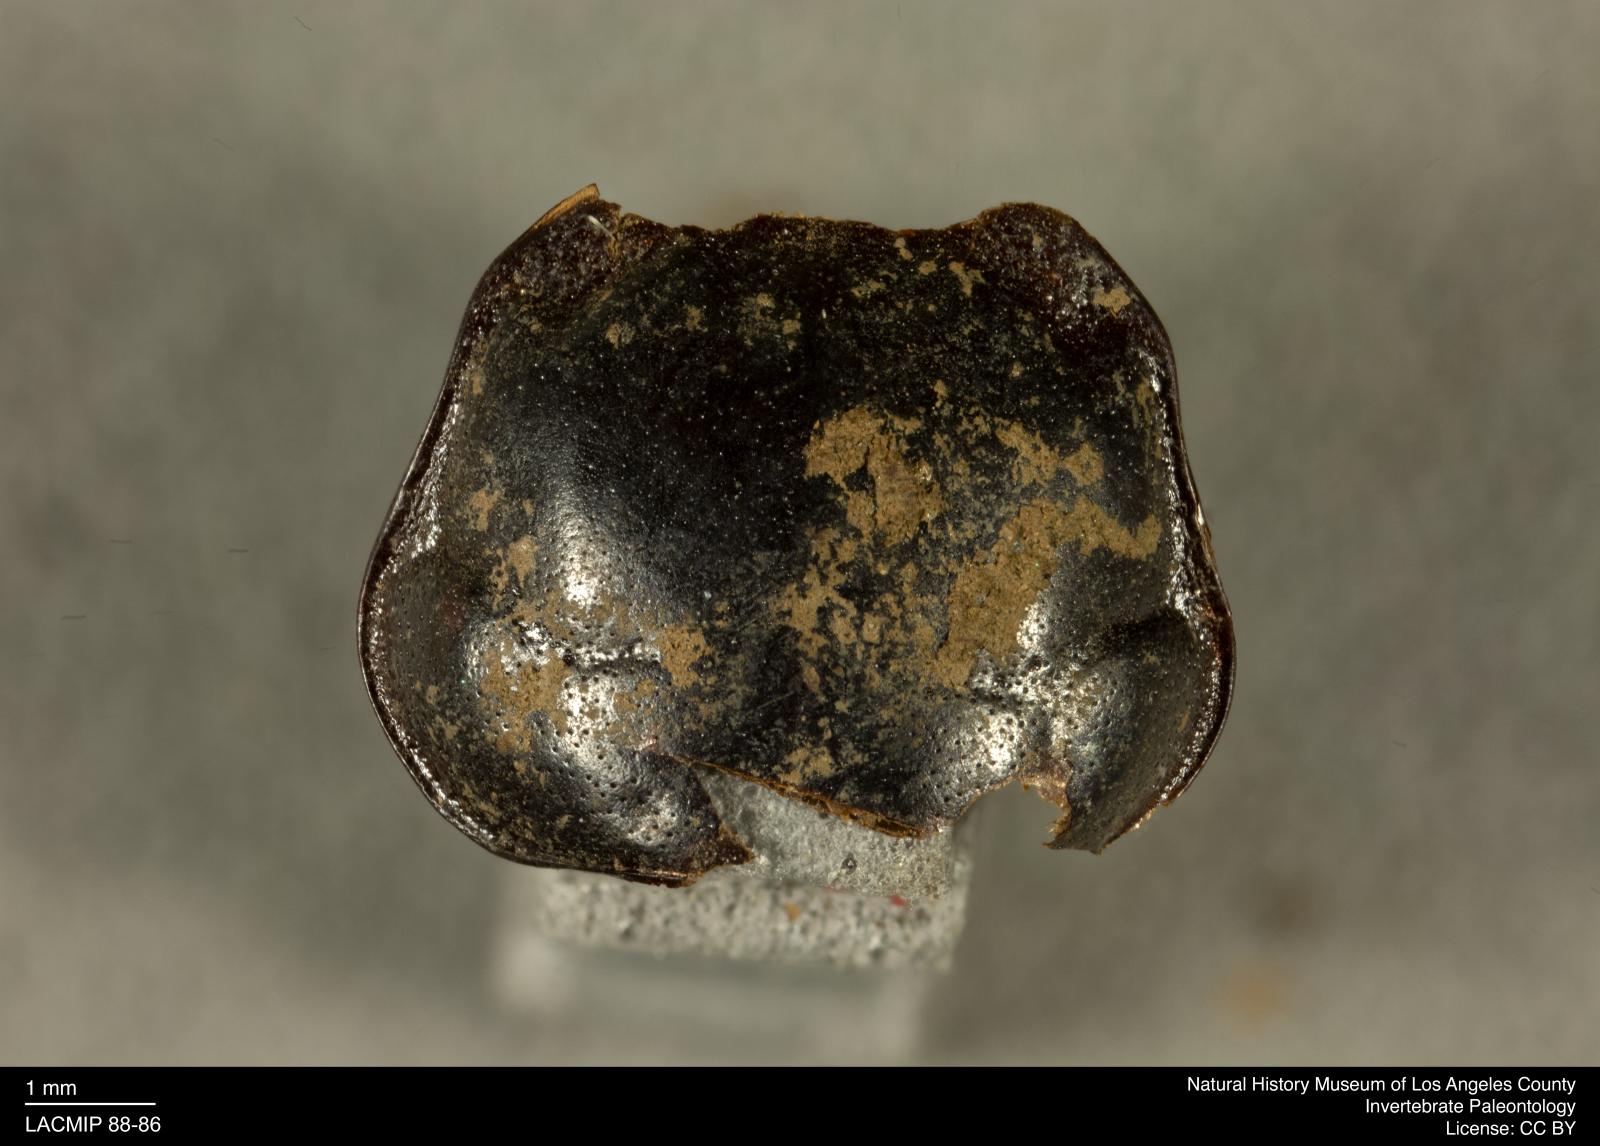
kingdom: Animalia
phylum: Arthropoda
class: Insecta
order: Coleoptera
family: Staphylinidae
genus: Nicrophorus
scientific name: Nicrophorus marginatus
